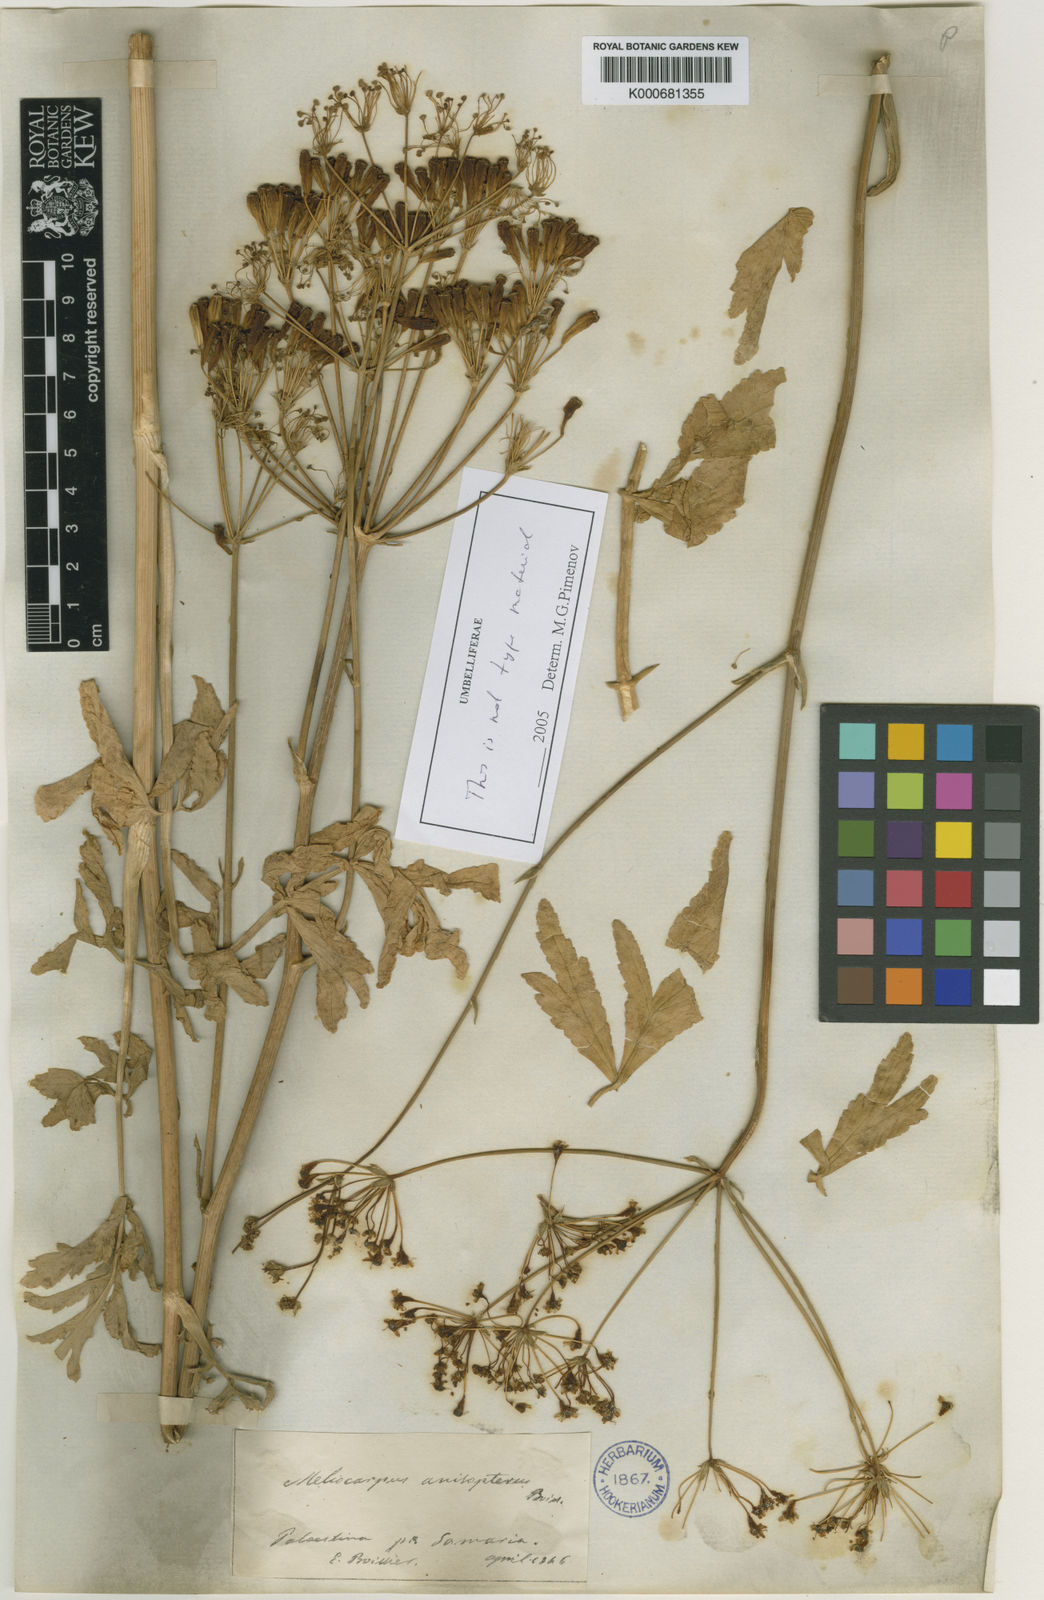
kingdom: Plantae
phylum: Tracheophyta
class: Magnoliopsida
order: Apiales
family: Apiaceae
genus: Heptaptera
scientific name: Heptaptera
